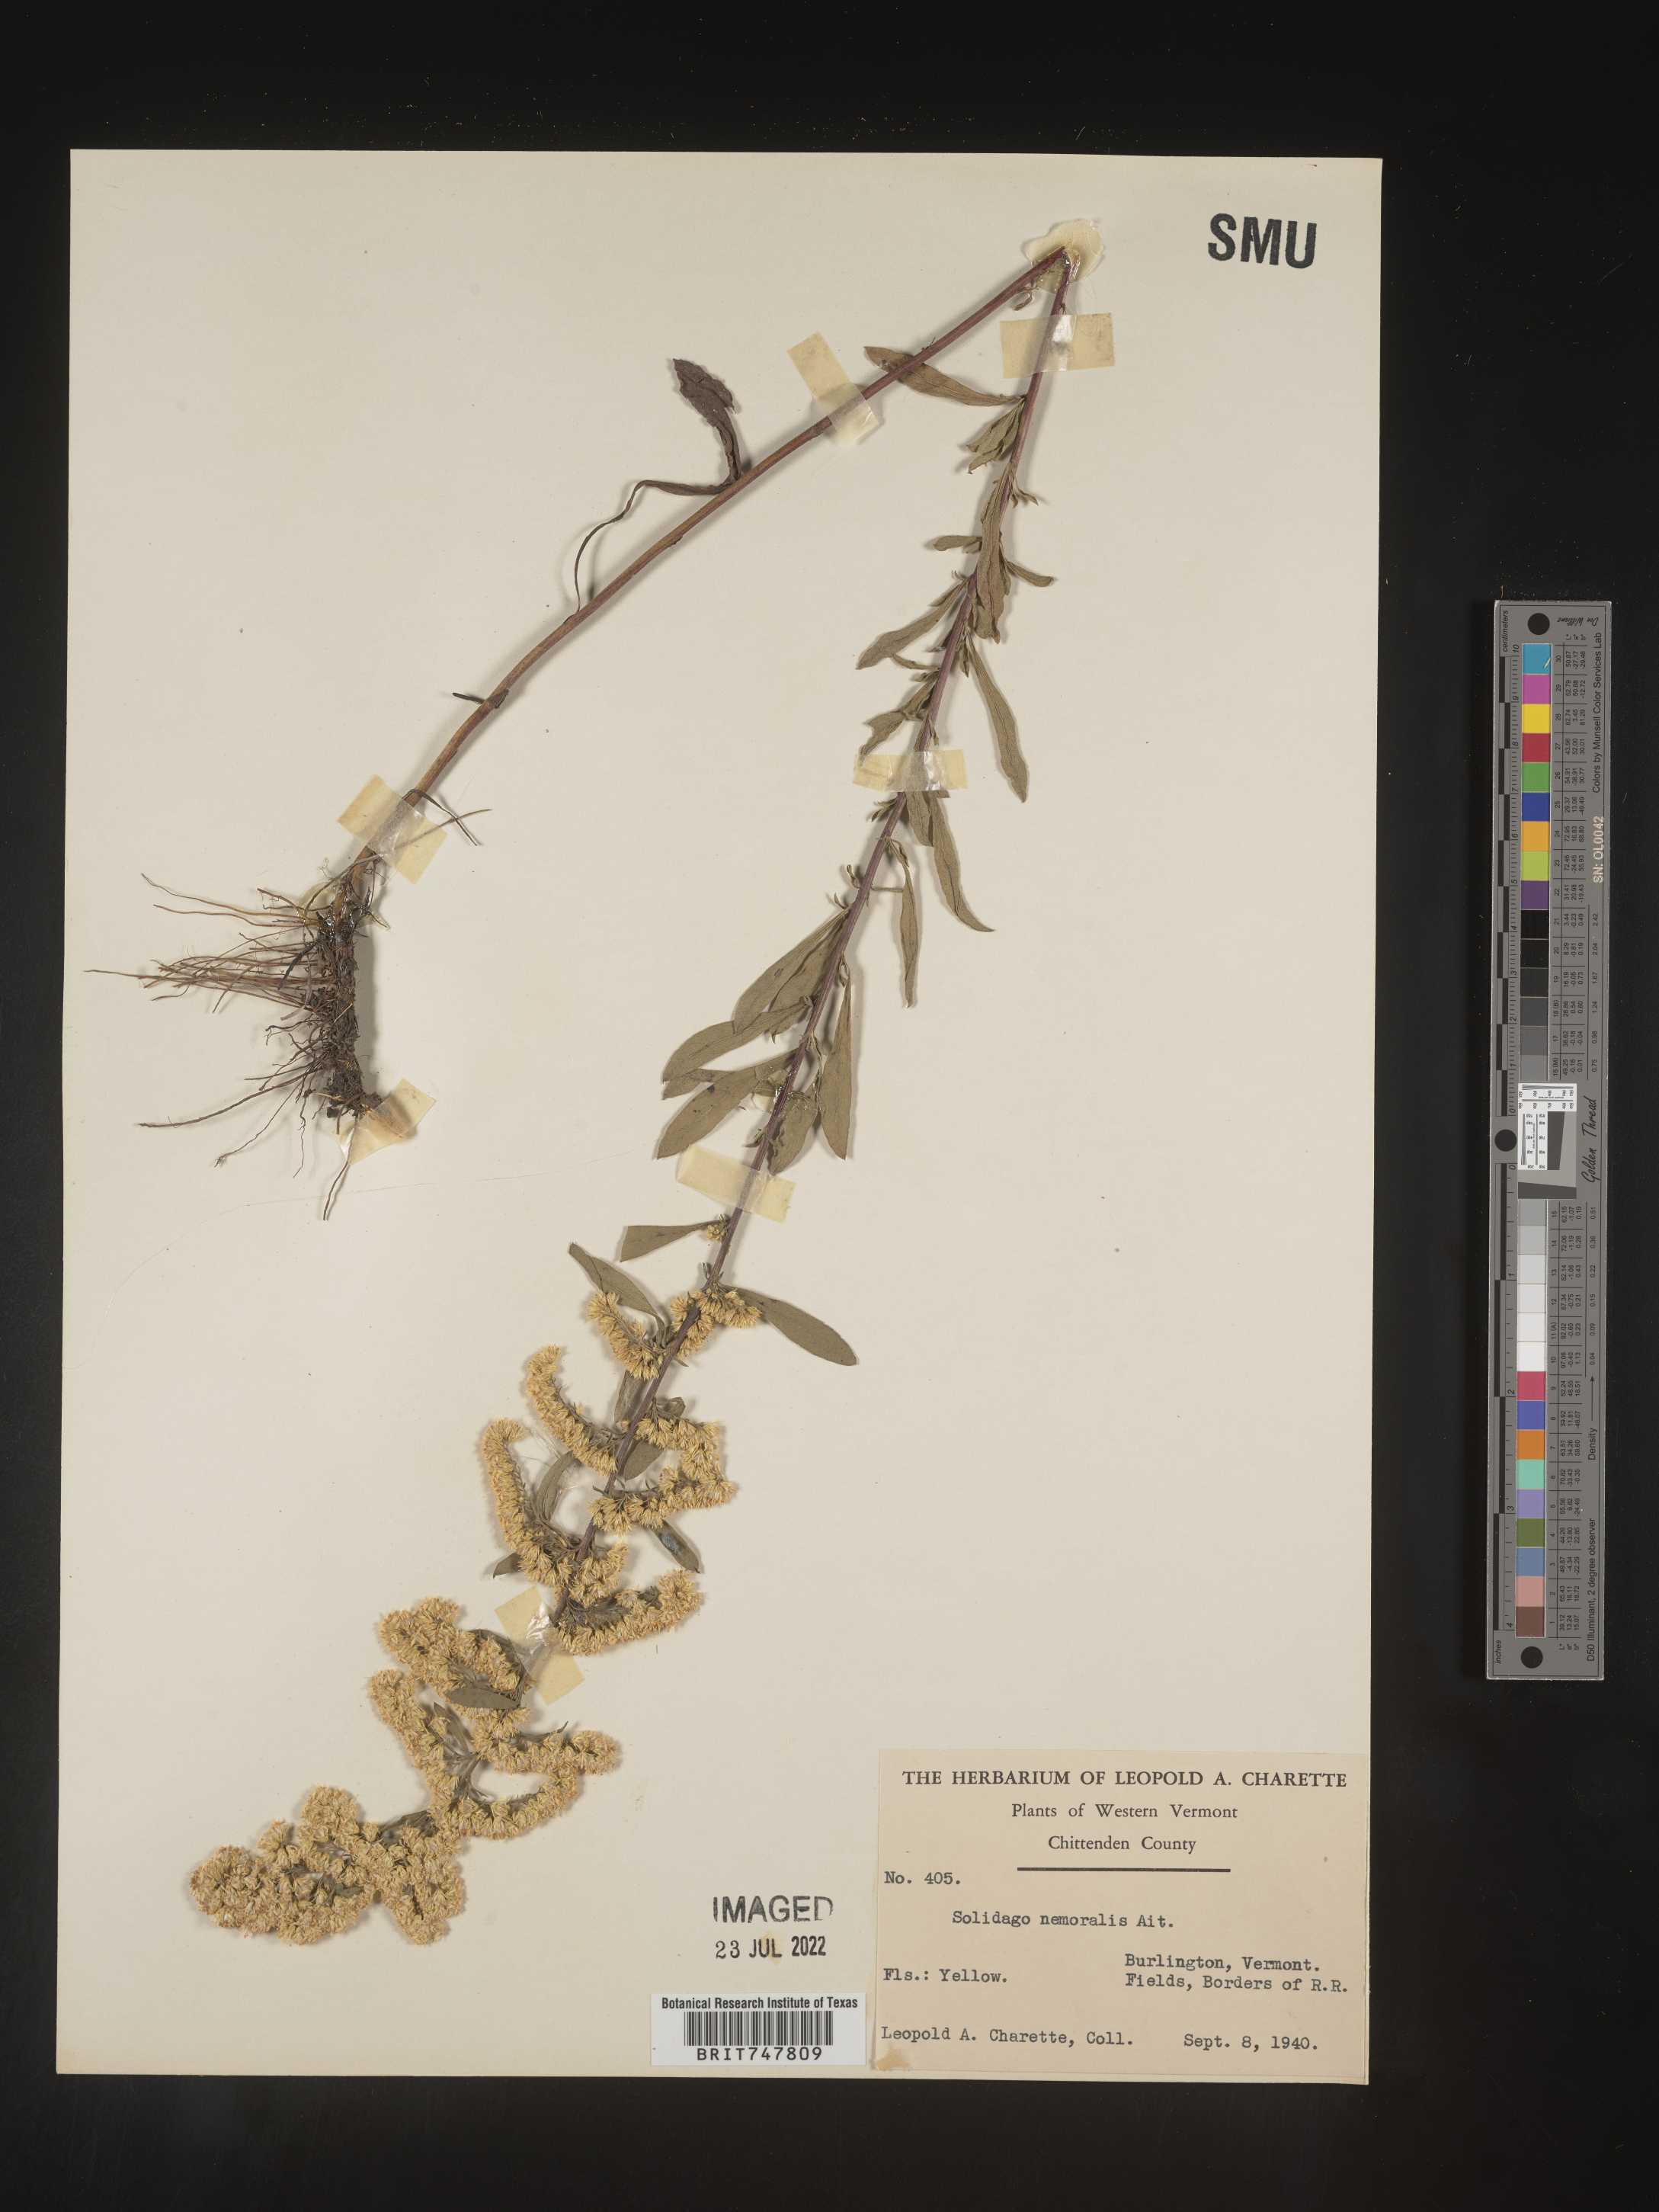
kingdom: Plantae
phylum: Tracheophyta
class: Magnoliopsida
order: Asterales
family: Asteraceae
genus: Solidago
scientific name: Solidago nemoralis
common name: Grey goldenrod
